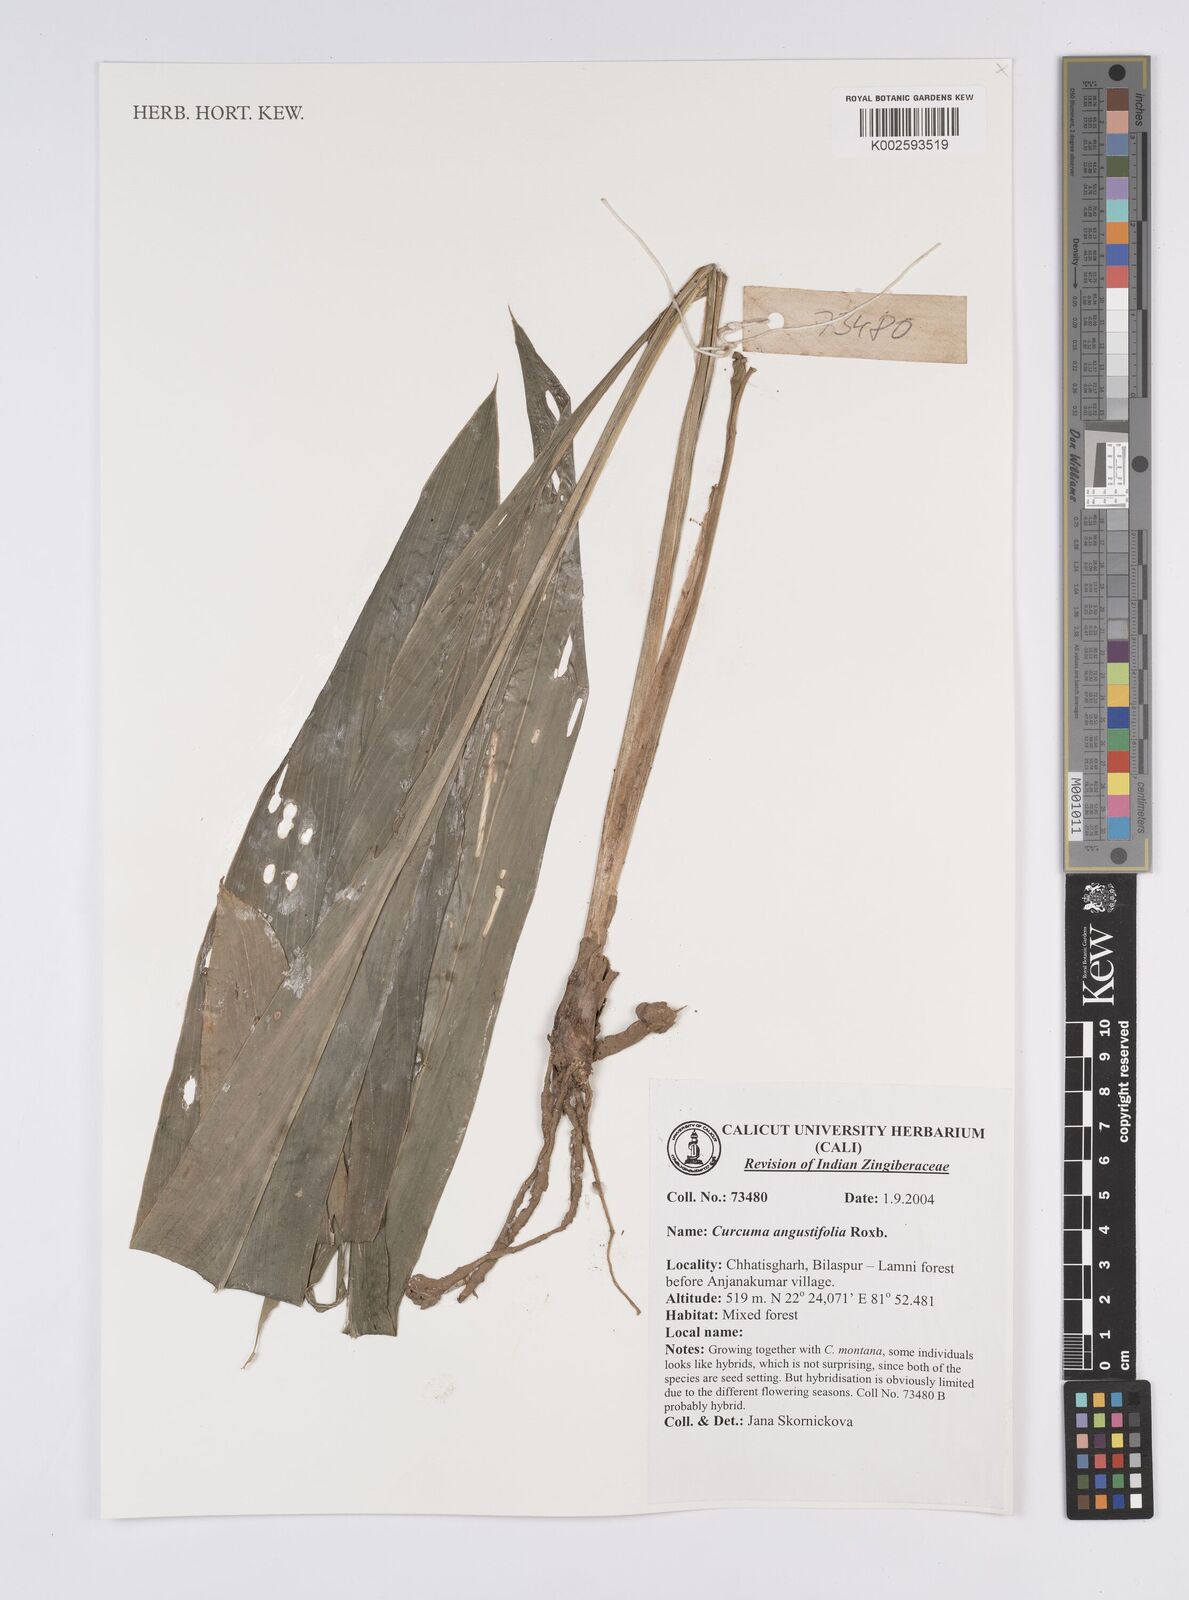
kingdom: Plantae
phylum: Tracheophyta
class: Liliopsida
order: Zingiberales
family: Zingiberaceae
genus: Curcuma
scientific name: Curcuma angustifolia
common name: East indian arrowroot
